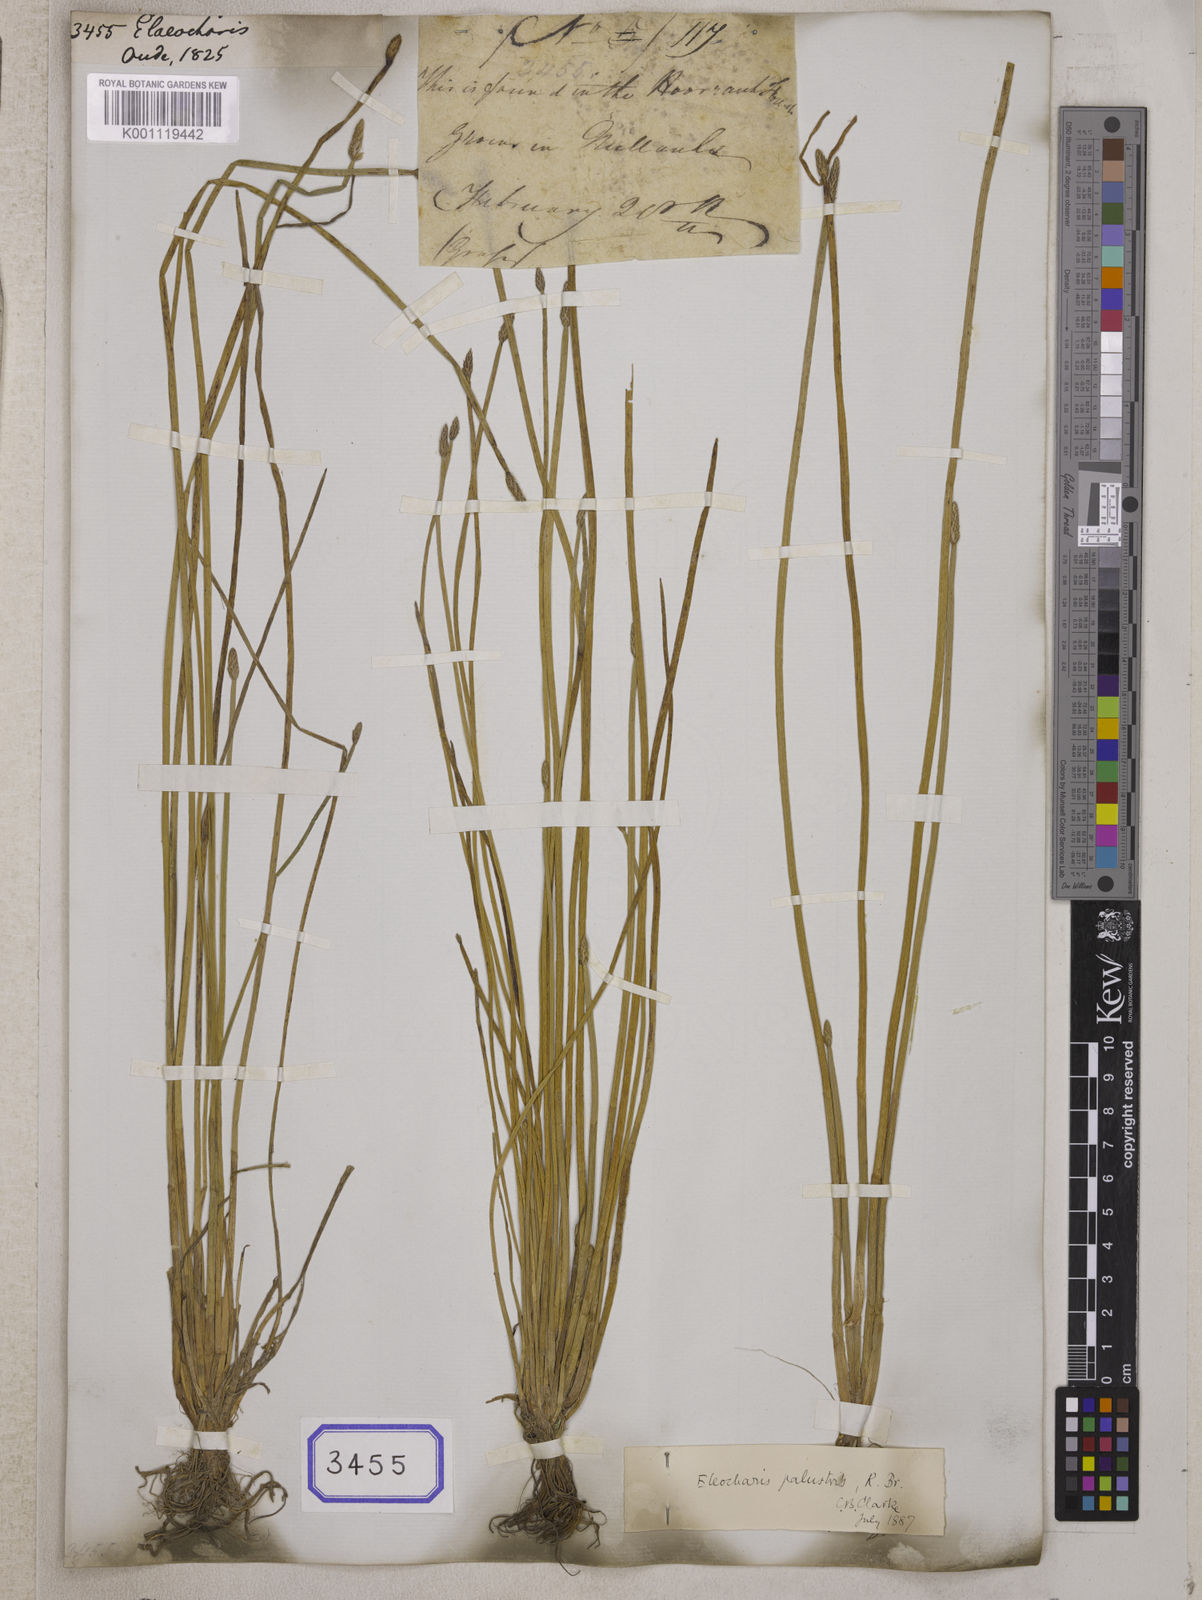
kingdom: Plantae
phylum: Tracheophyta
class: Liliopsida
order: Poales
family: Cyperaceae
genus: Eleocharis
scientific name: Eleocharis
